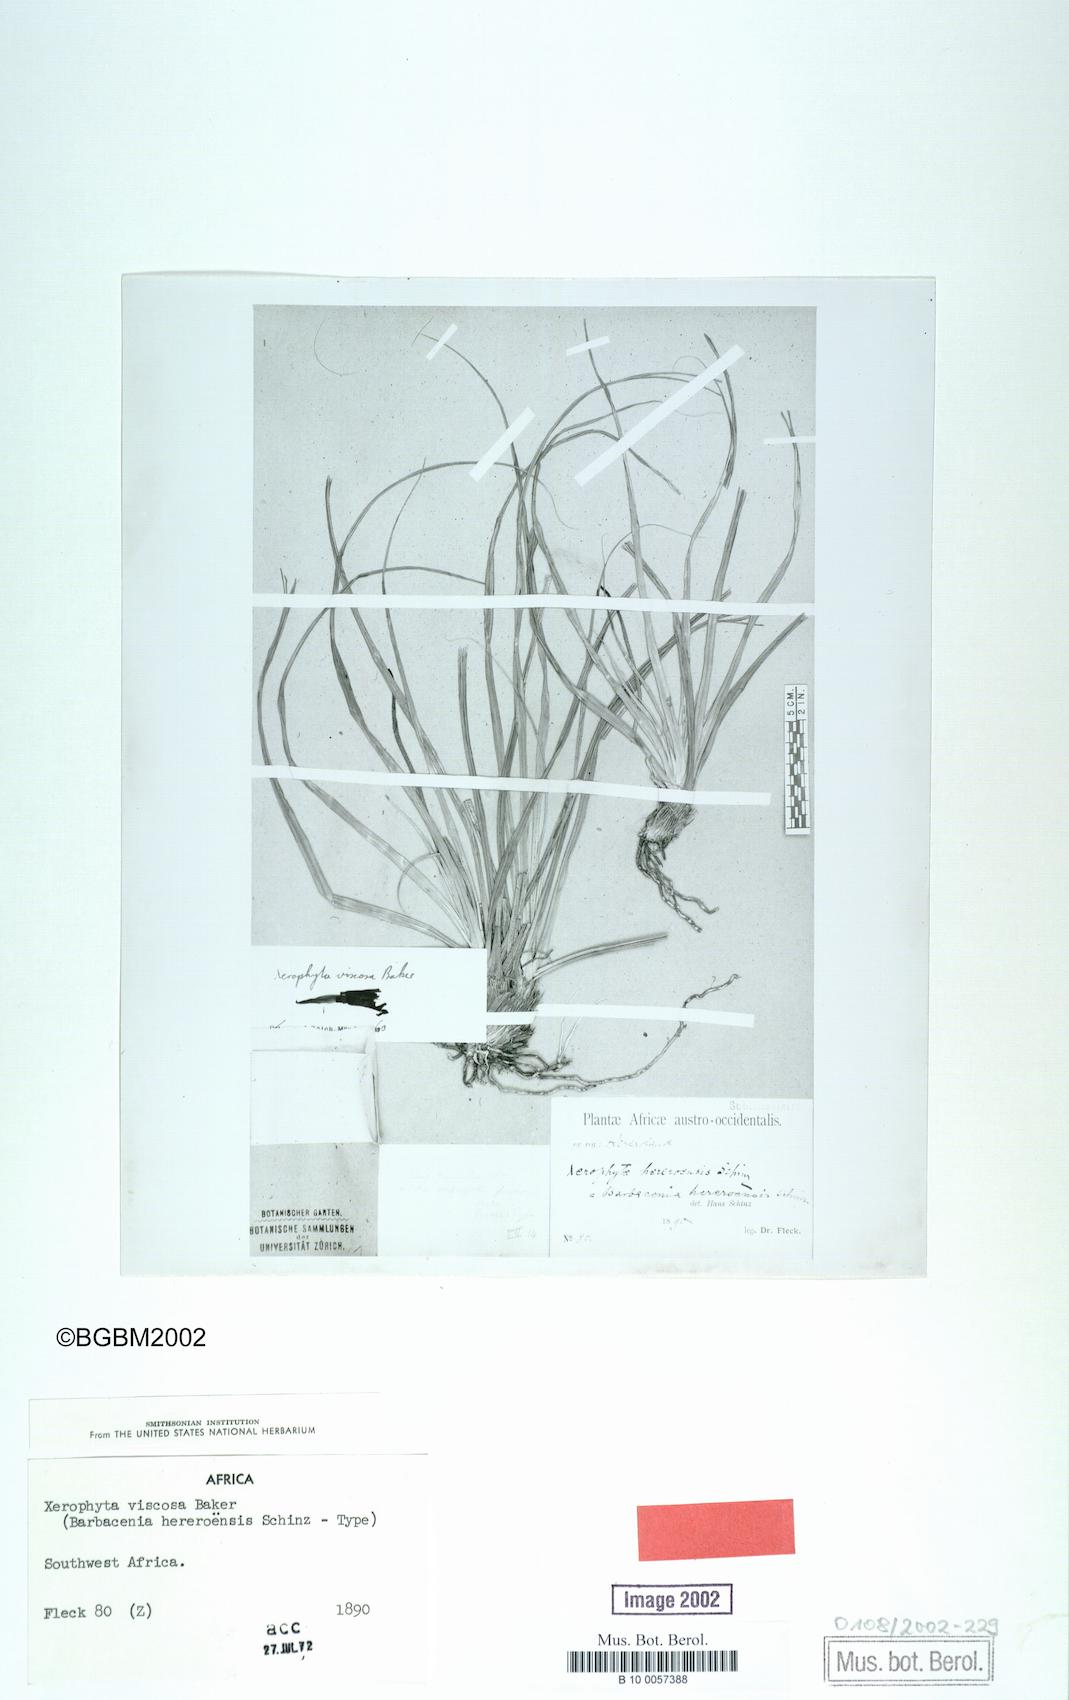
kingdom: Plantae
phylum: Tracheophyta
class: Liliopsida
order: Pandanales
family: Velloziaceae
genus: Xerophyta
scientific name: Xerophyta viscosa
